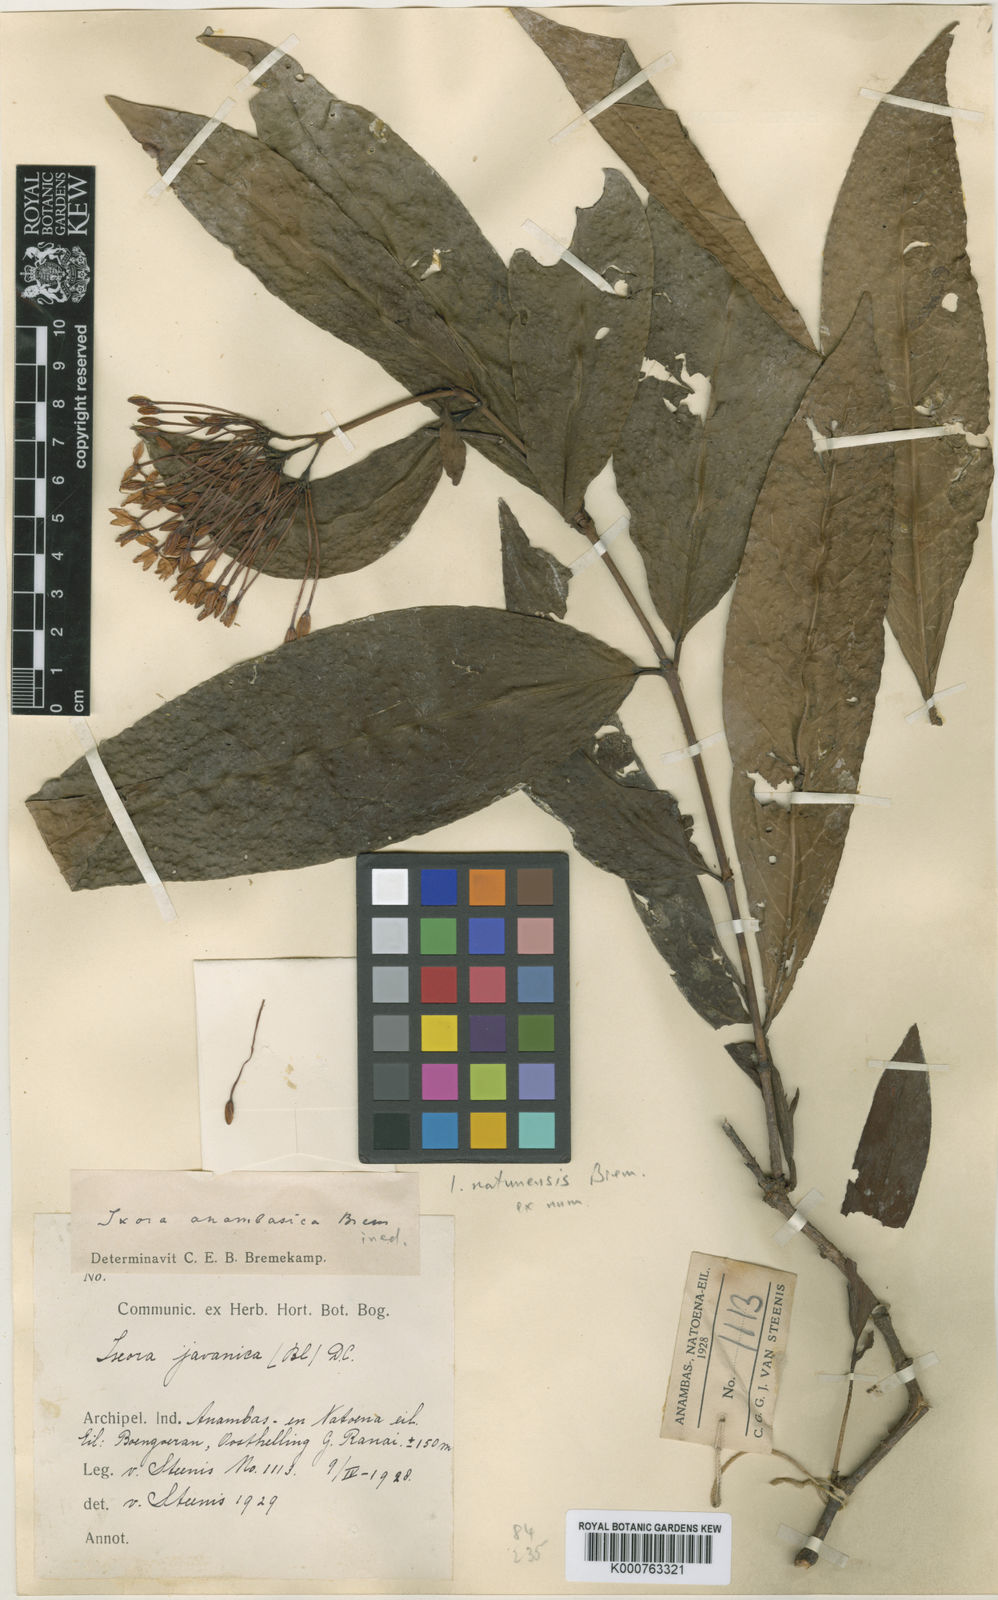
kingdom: Plantae
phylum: Tracheophyta
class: Magnoliopsida
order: Gentianales
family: Rubiaceae
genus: Ixora
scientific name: Ixora natunensis
